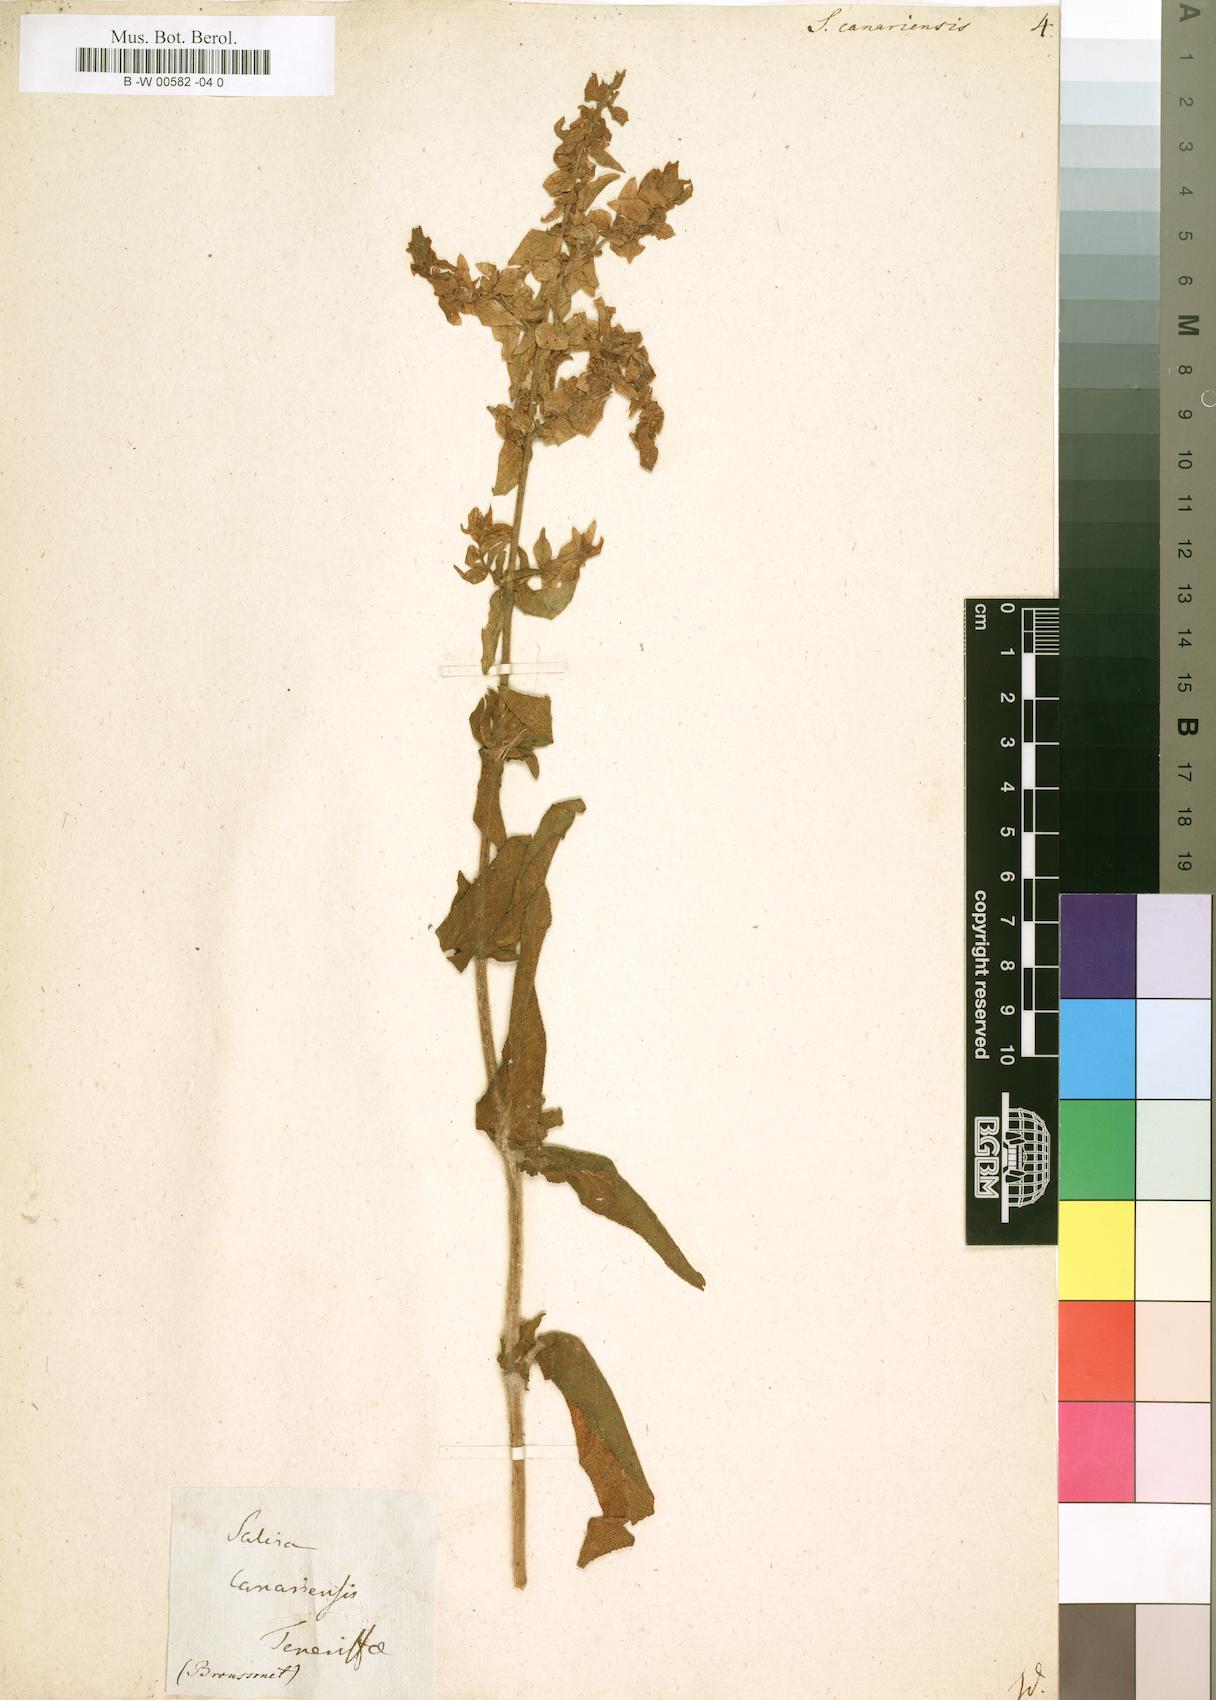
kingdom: Plantae
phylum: Tracheophyta
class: Magnoliopsida
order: Lamiales
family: Lamiaceae
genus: Salvia
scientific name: Salvia canariensis
